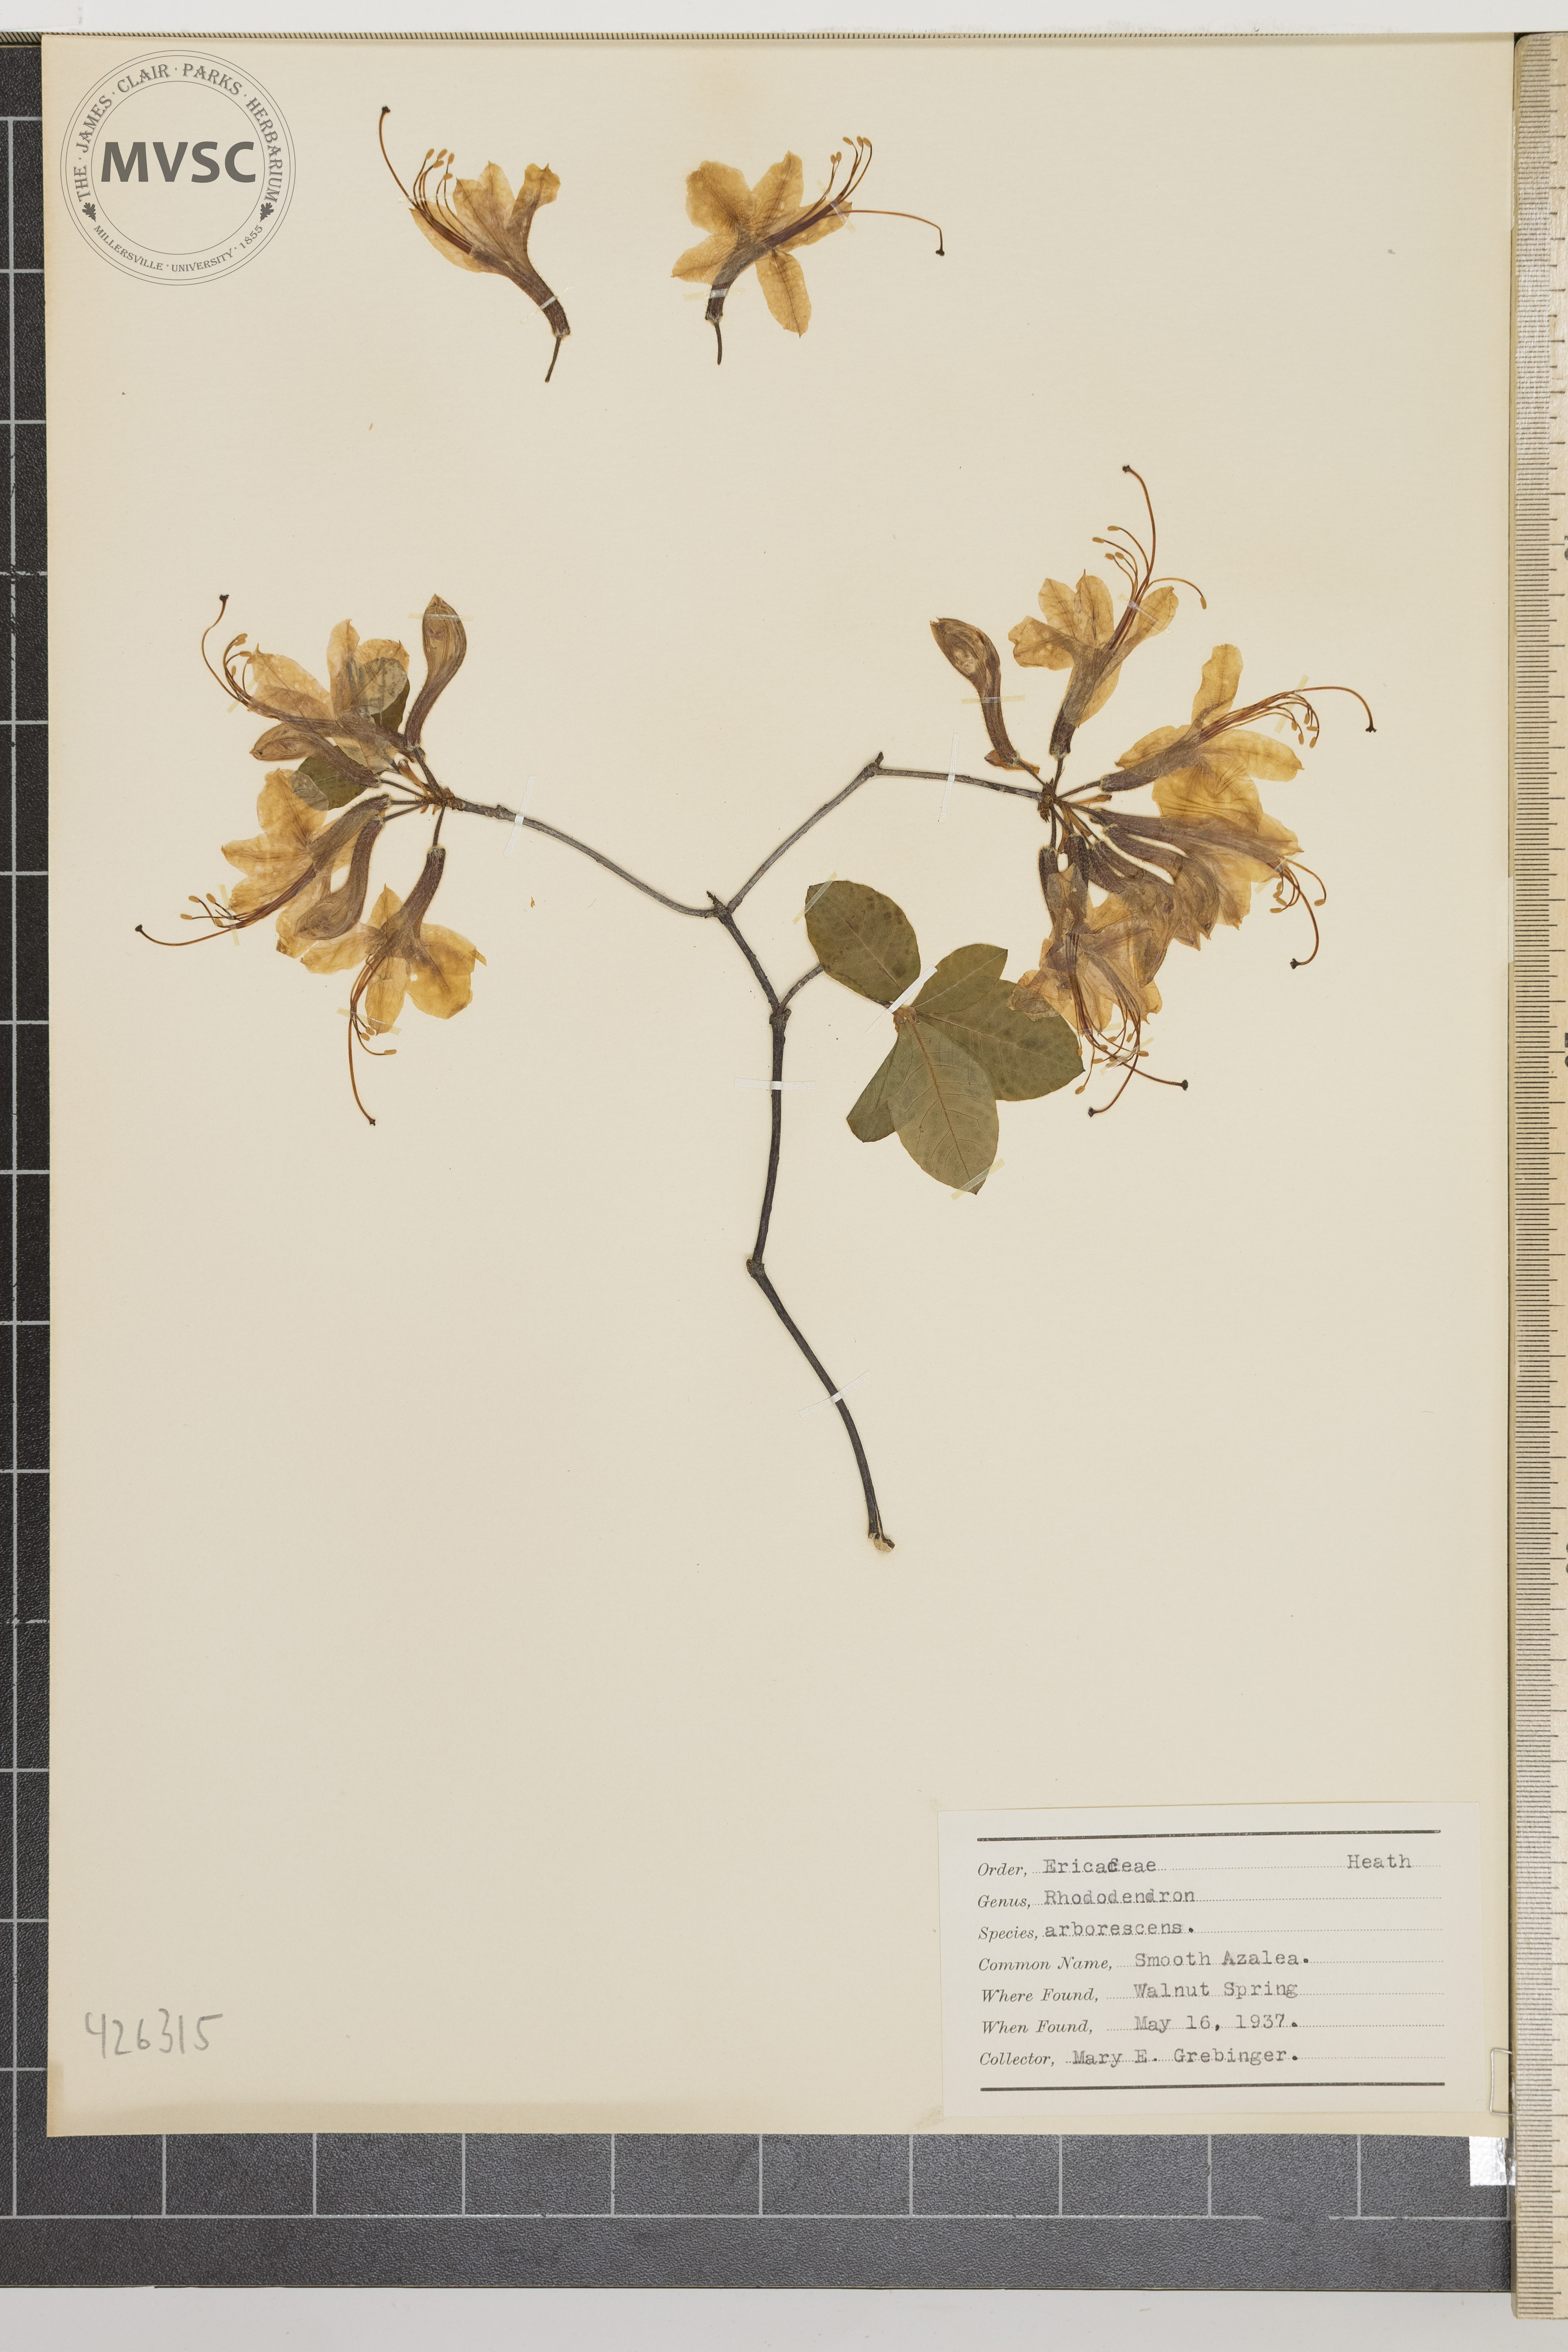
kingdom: Plantae
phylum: Tracheophyta
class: Magnoliopsida
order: Ericales
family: Ericaceae
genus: Rhododendron
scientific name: Rhododendron periclymenoides
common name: Election-pink
